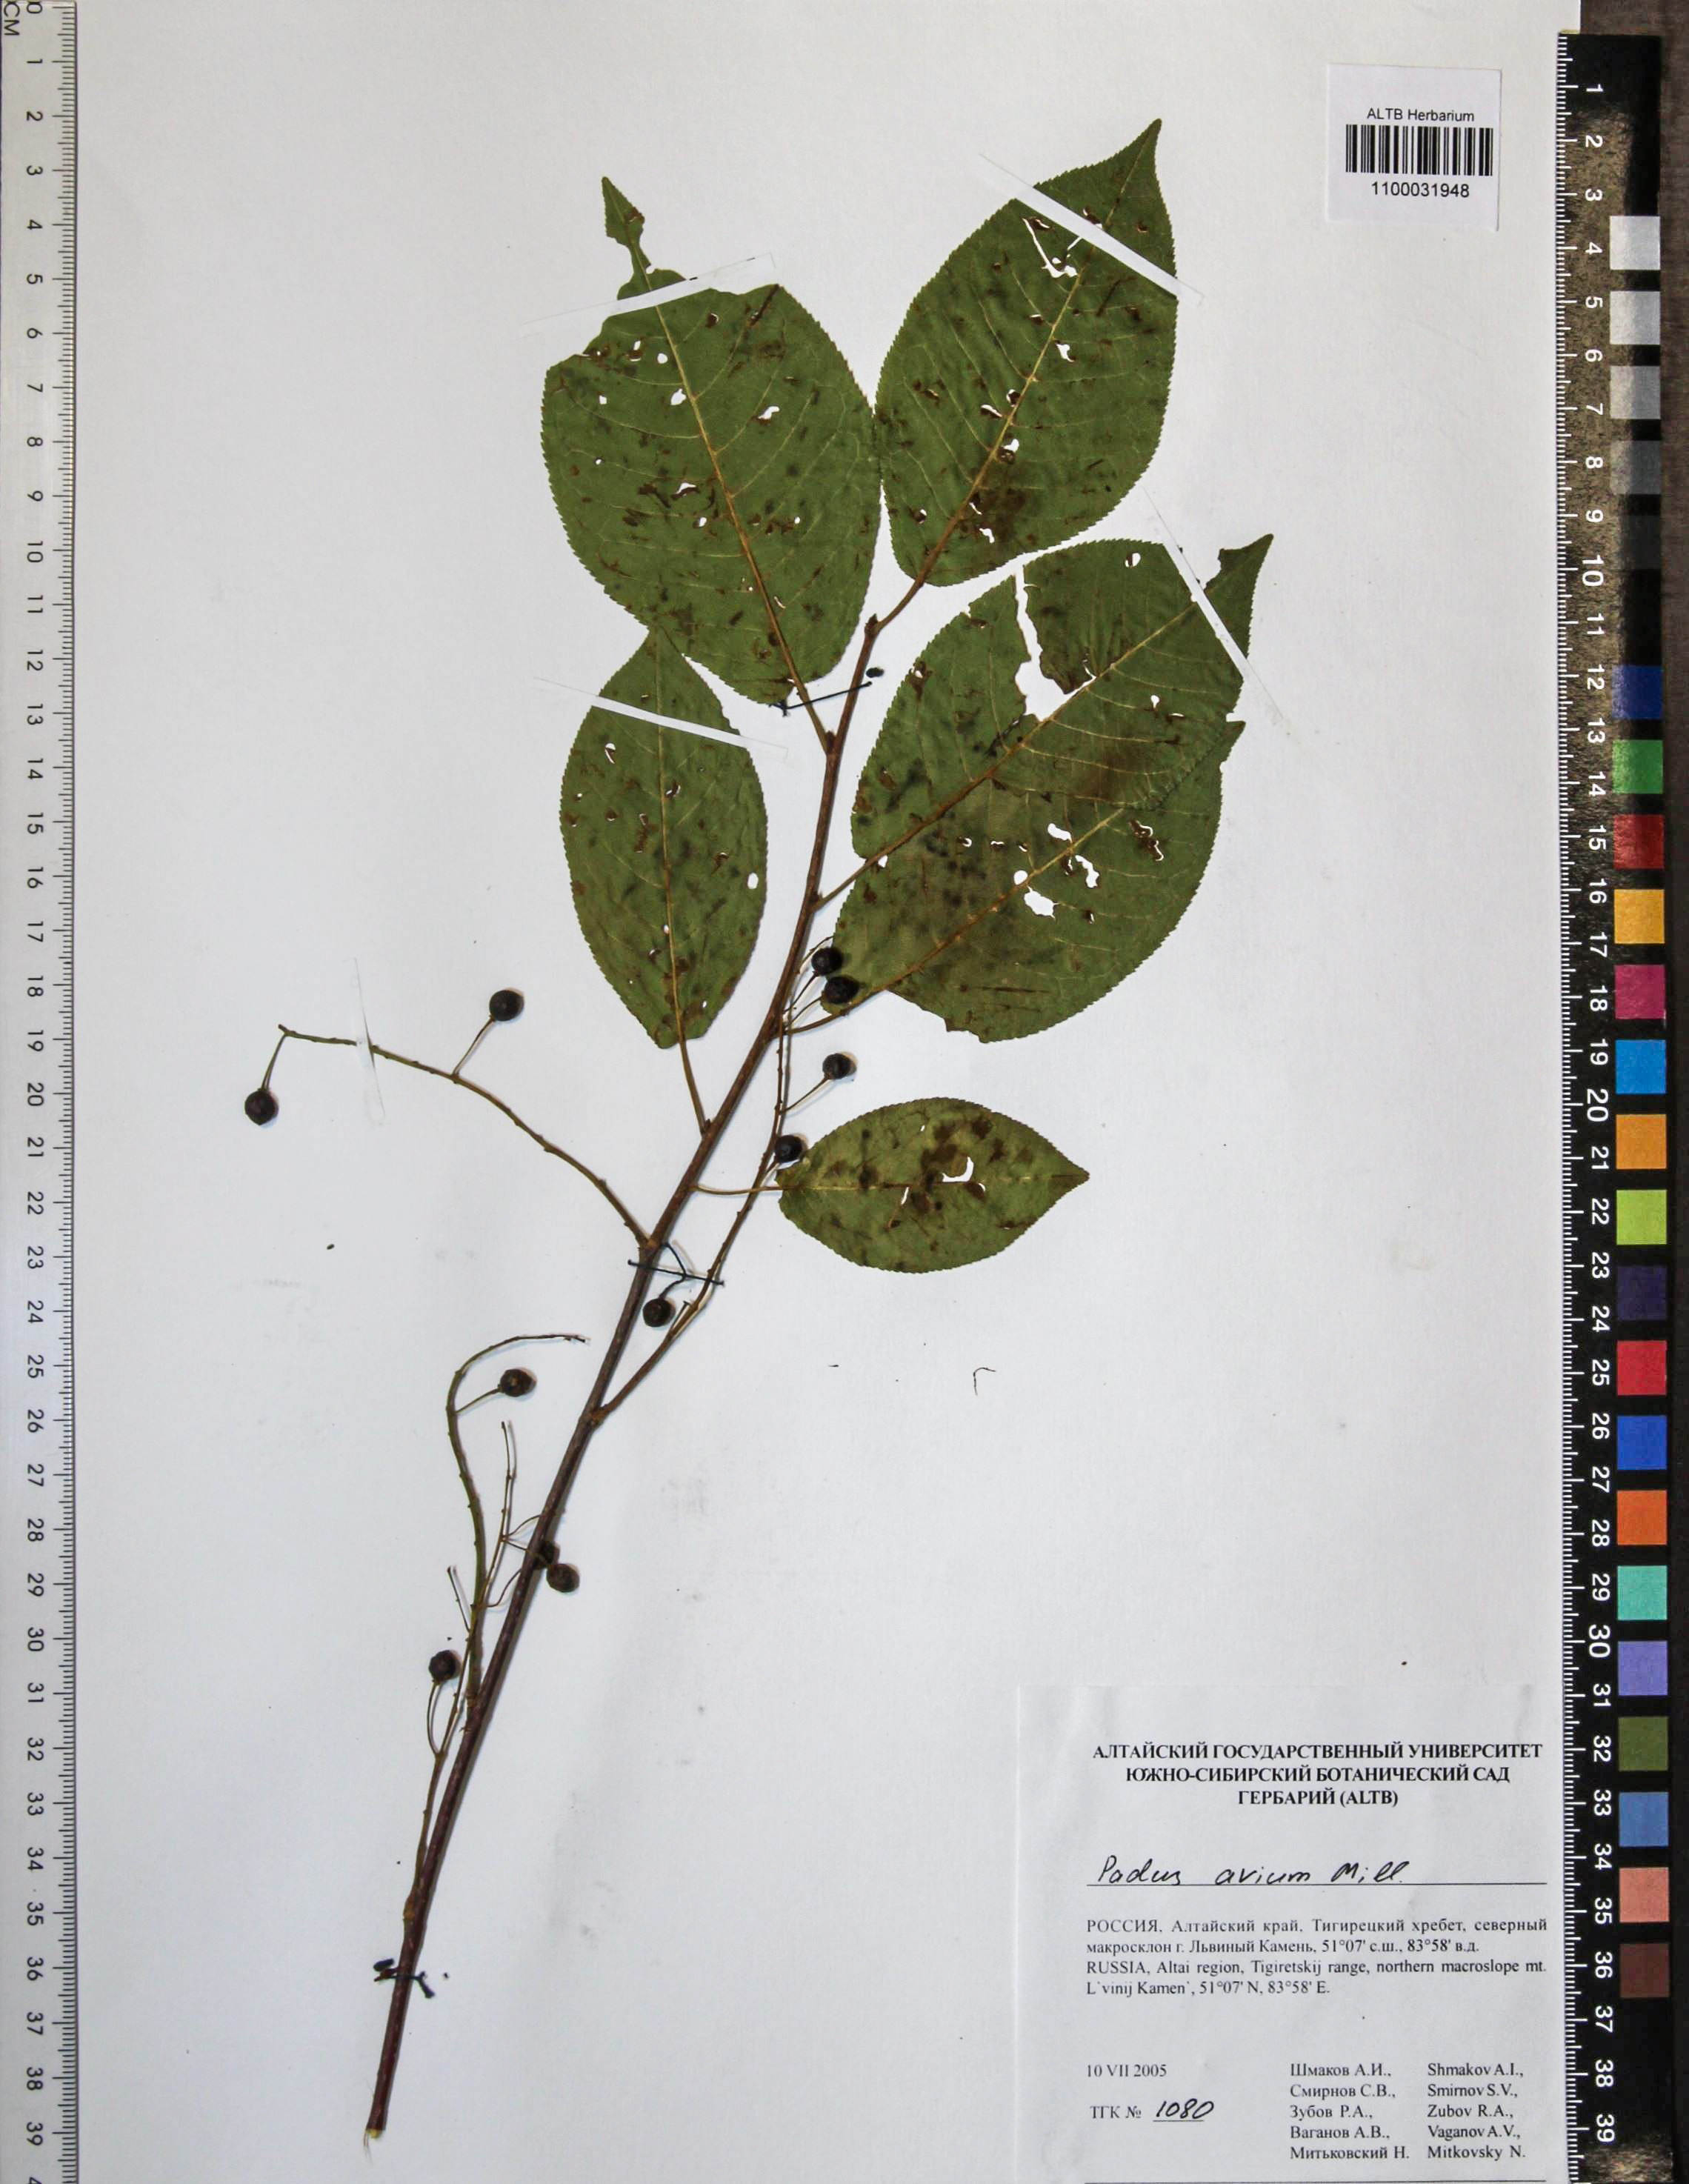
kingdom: Plantae
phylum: Tracheophyta
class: Magnoliopsida
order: Rosales
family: Rosaceae
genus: Prunus
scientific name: Prunus padus
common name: Bird cherry
